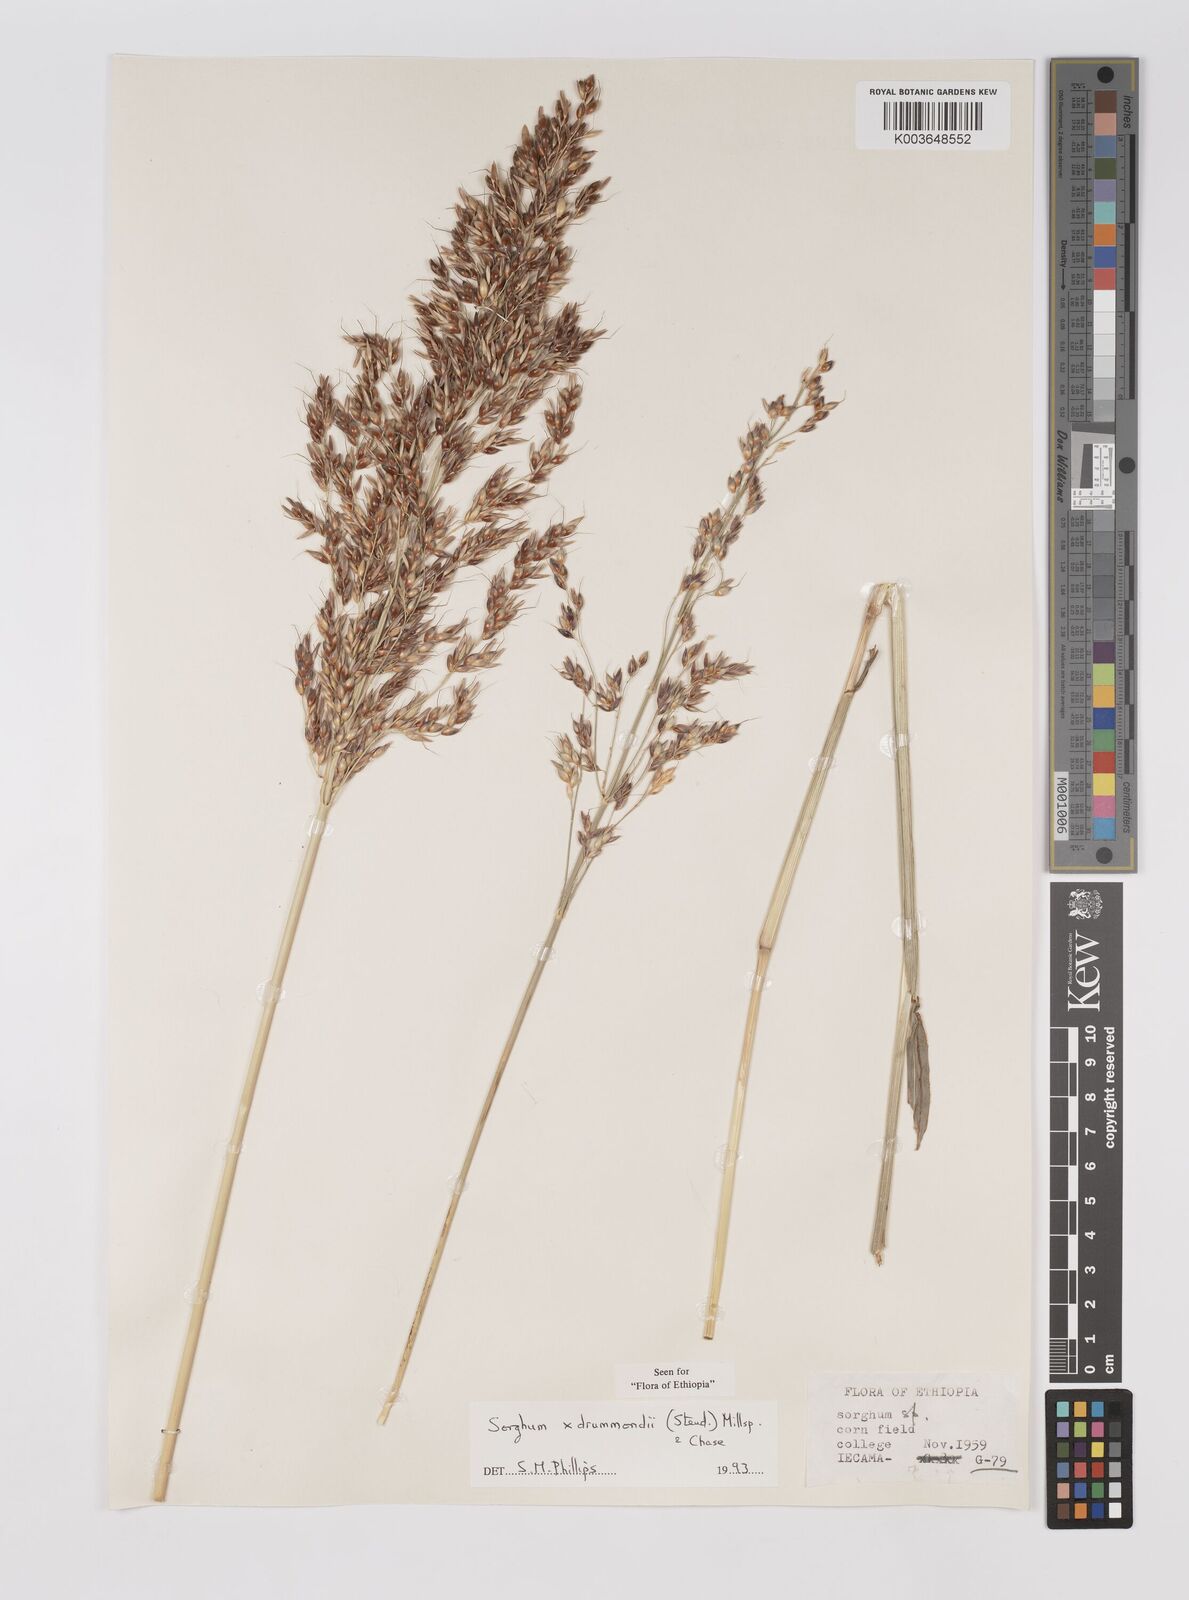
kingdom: Plantae
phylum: Tracheophyta
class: Liliopsida
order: Poales
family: Poaceae
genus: Sorghum
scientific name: Sorghum drummondii
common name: Sudangrass
